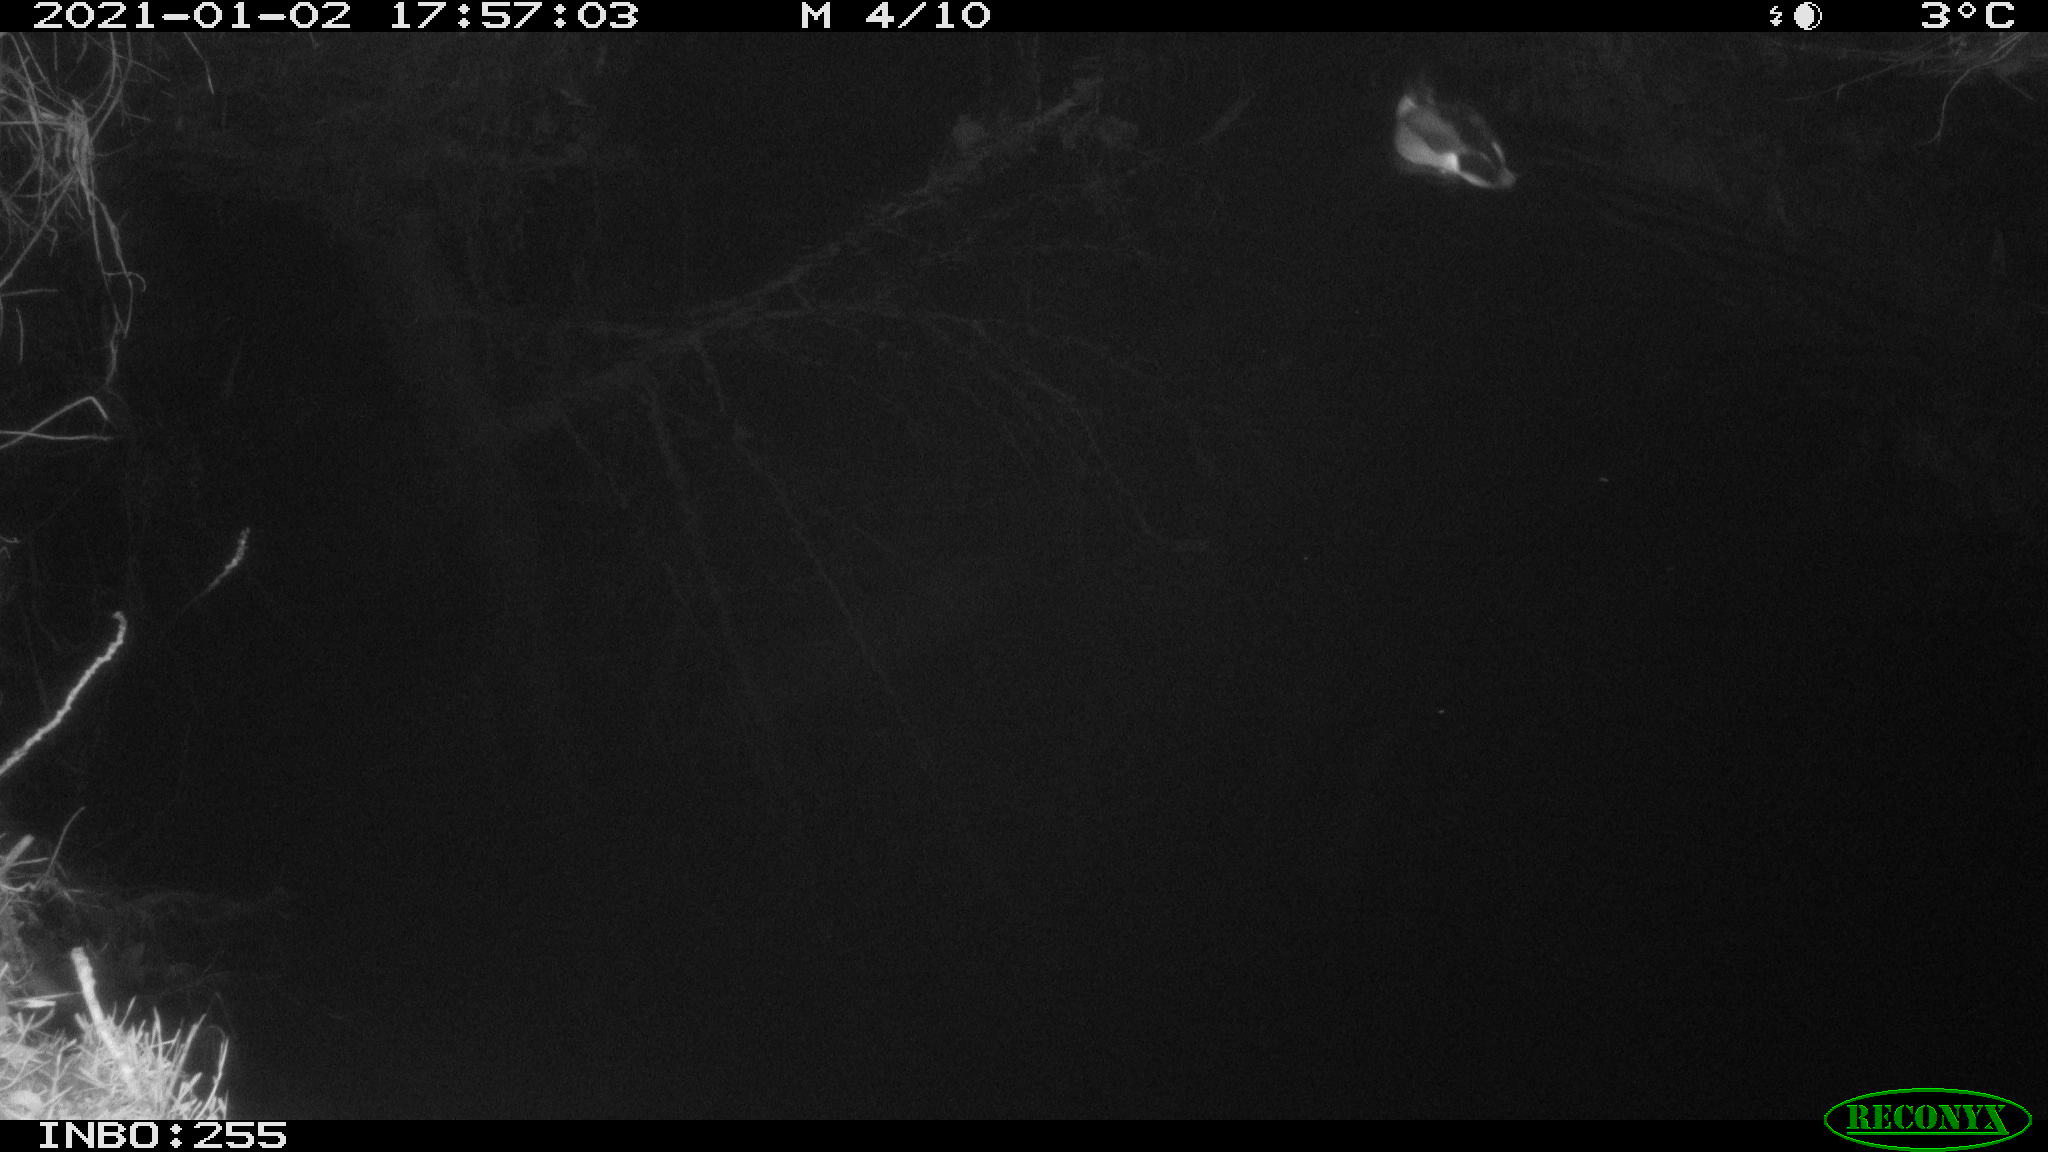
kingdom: Animalia
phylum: Chordata
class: Aves
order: Anseriformes
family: Anatidae
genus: Anas
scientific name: Anas platyrhynchos
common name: Mallard
